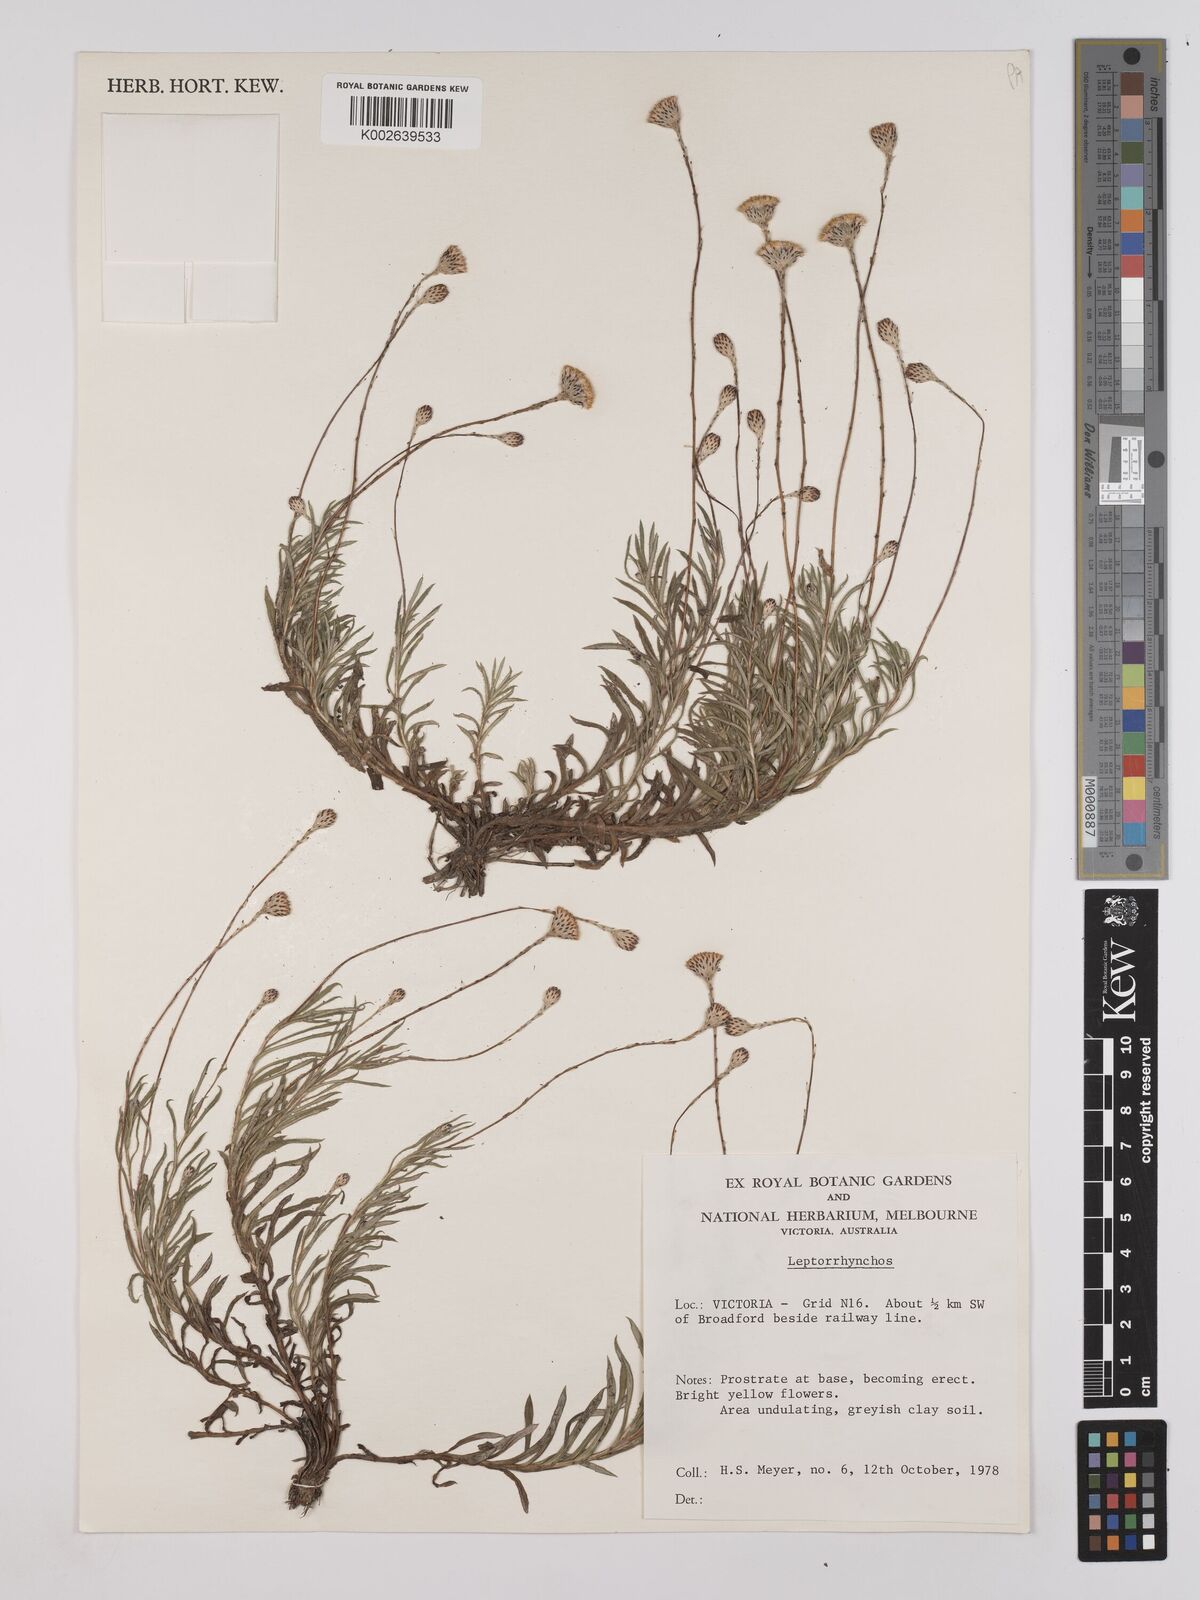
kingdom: Plantae
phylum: Tracheophyta
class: Magnoliopsida
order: Asterales
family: Asteraceae
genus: Leptorhynchos
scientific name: Leptorhynchos
